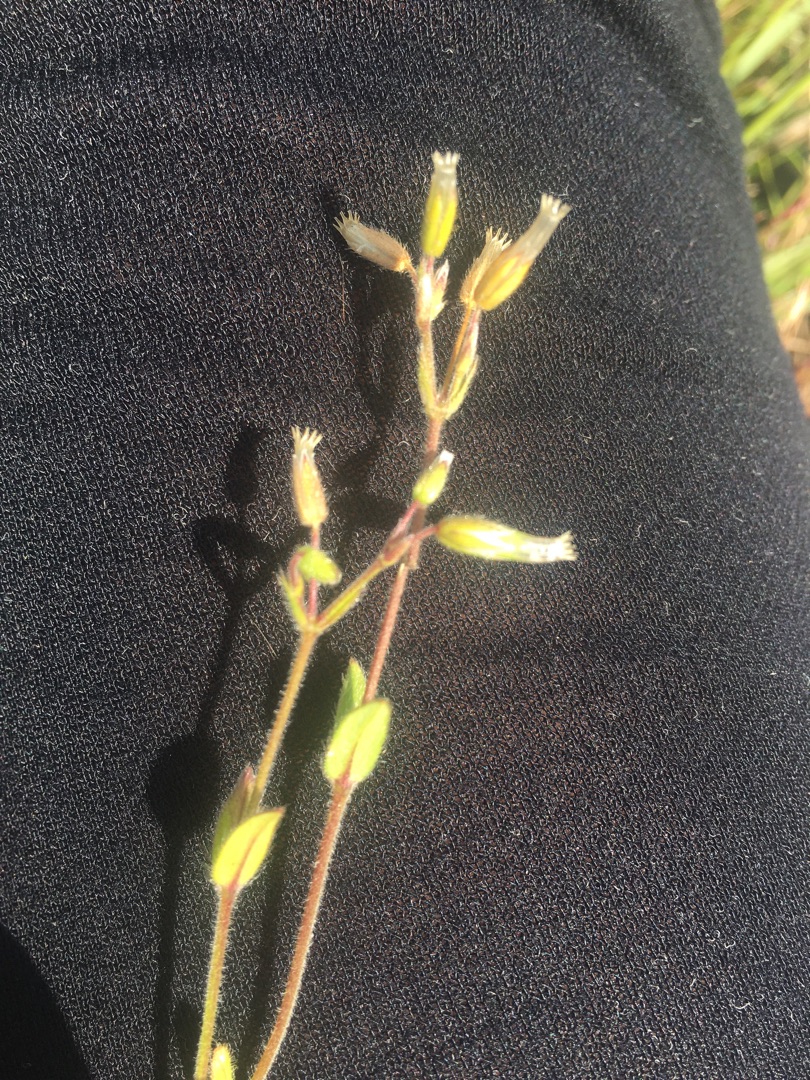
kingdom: Plantae
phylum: Tracheophyta
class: Magnoliopsida
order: Caryophyllales
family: Caryophyllaceae
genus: Cerastium
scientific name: Cerastium fontanum
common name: Almindelig hønsetarm
